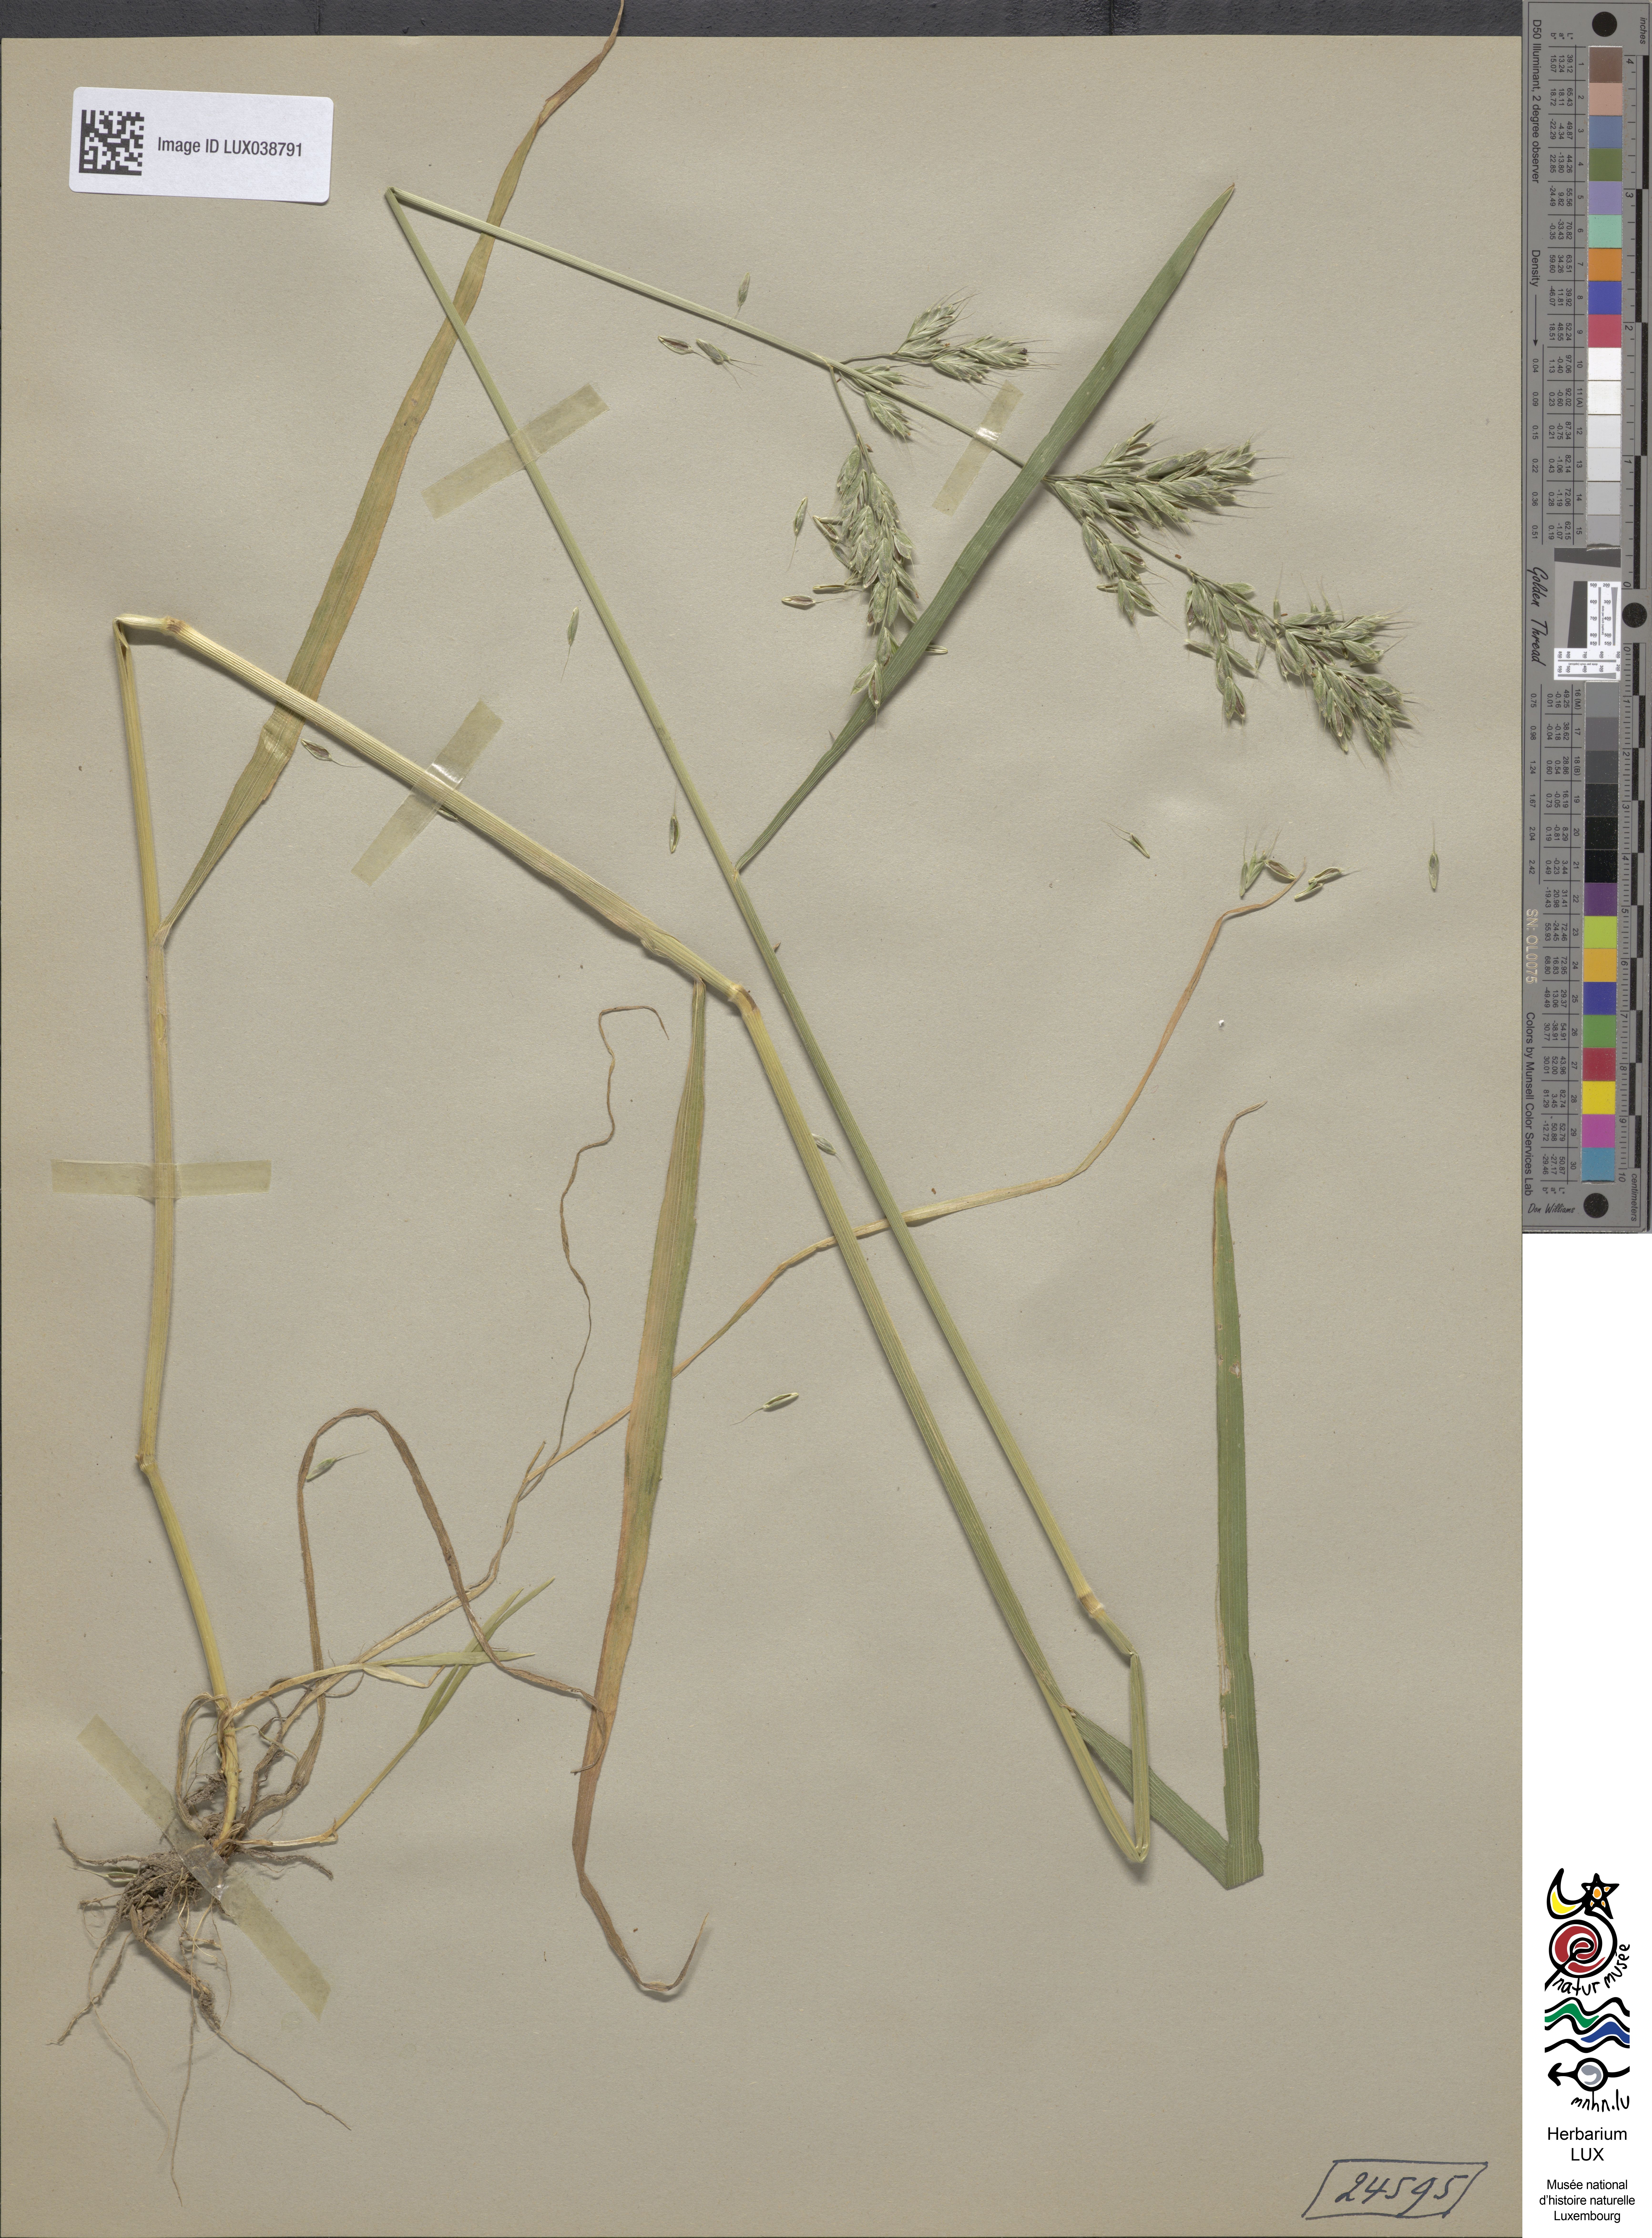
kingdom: Plantae
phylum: Tracheophyta
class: Liliopsida
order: Poales
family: Poaceae
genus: Bromus
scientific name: Bromus hordeaceus
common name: Soft brome
